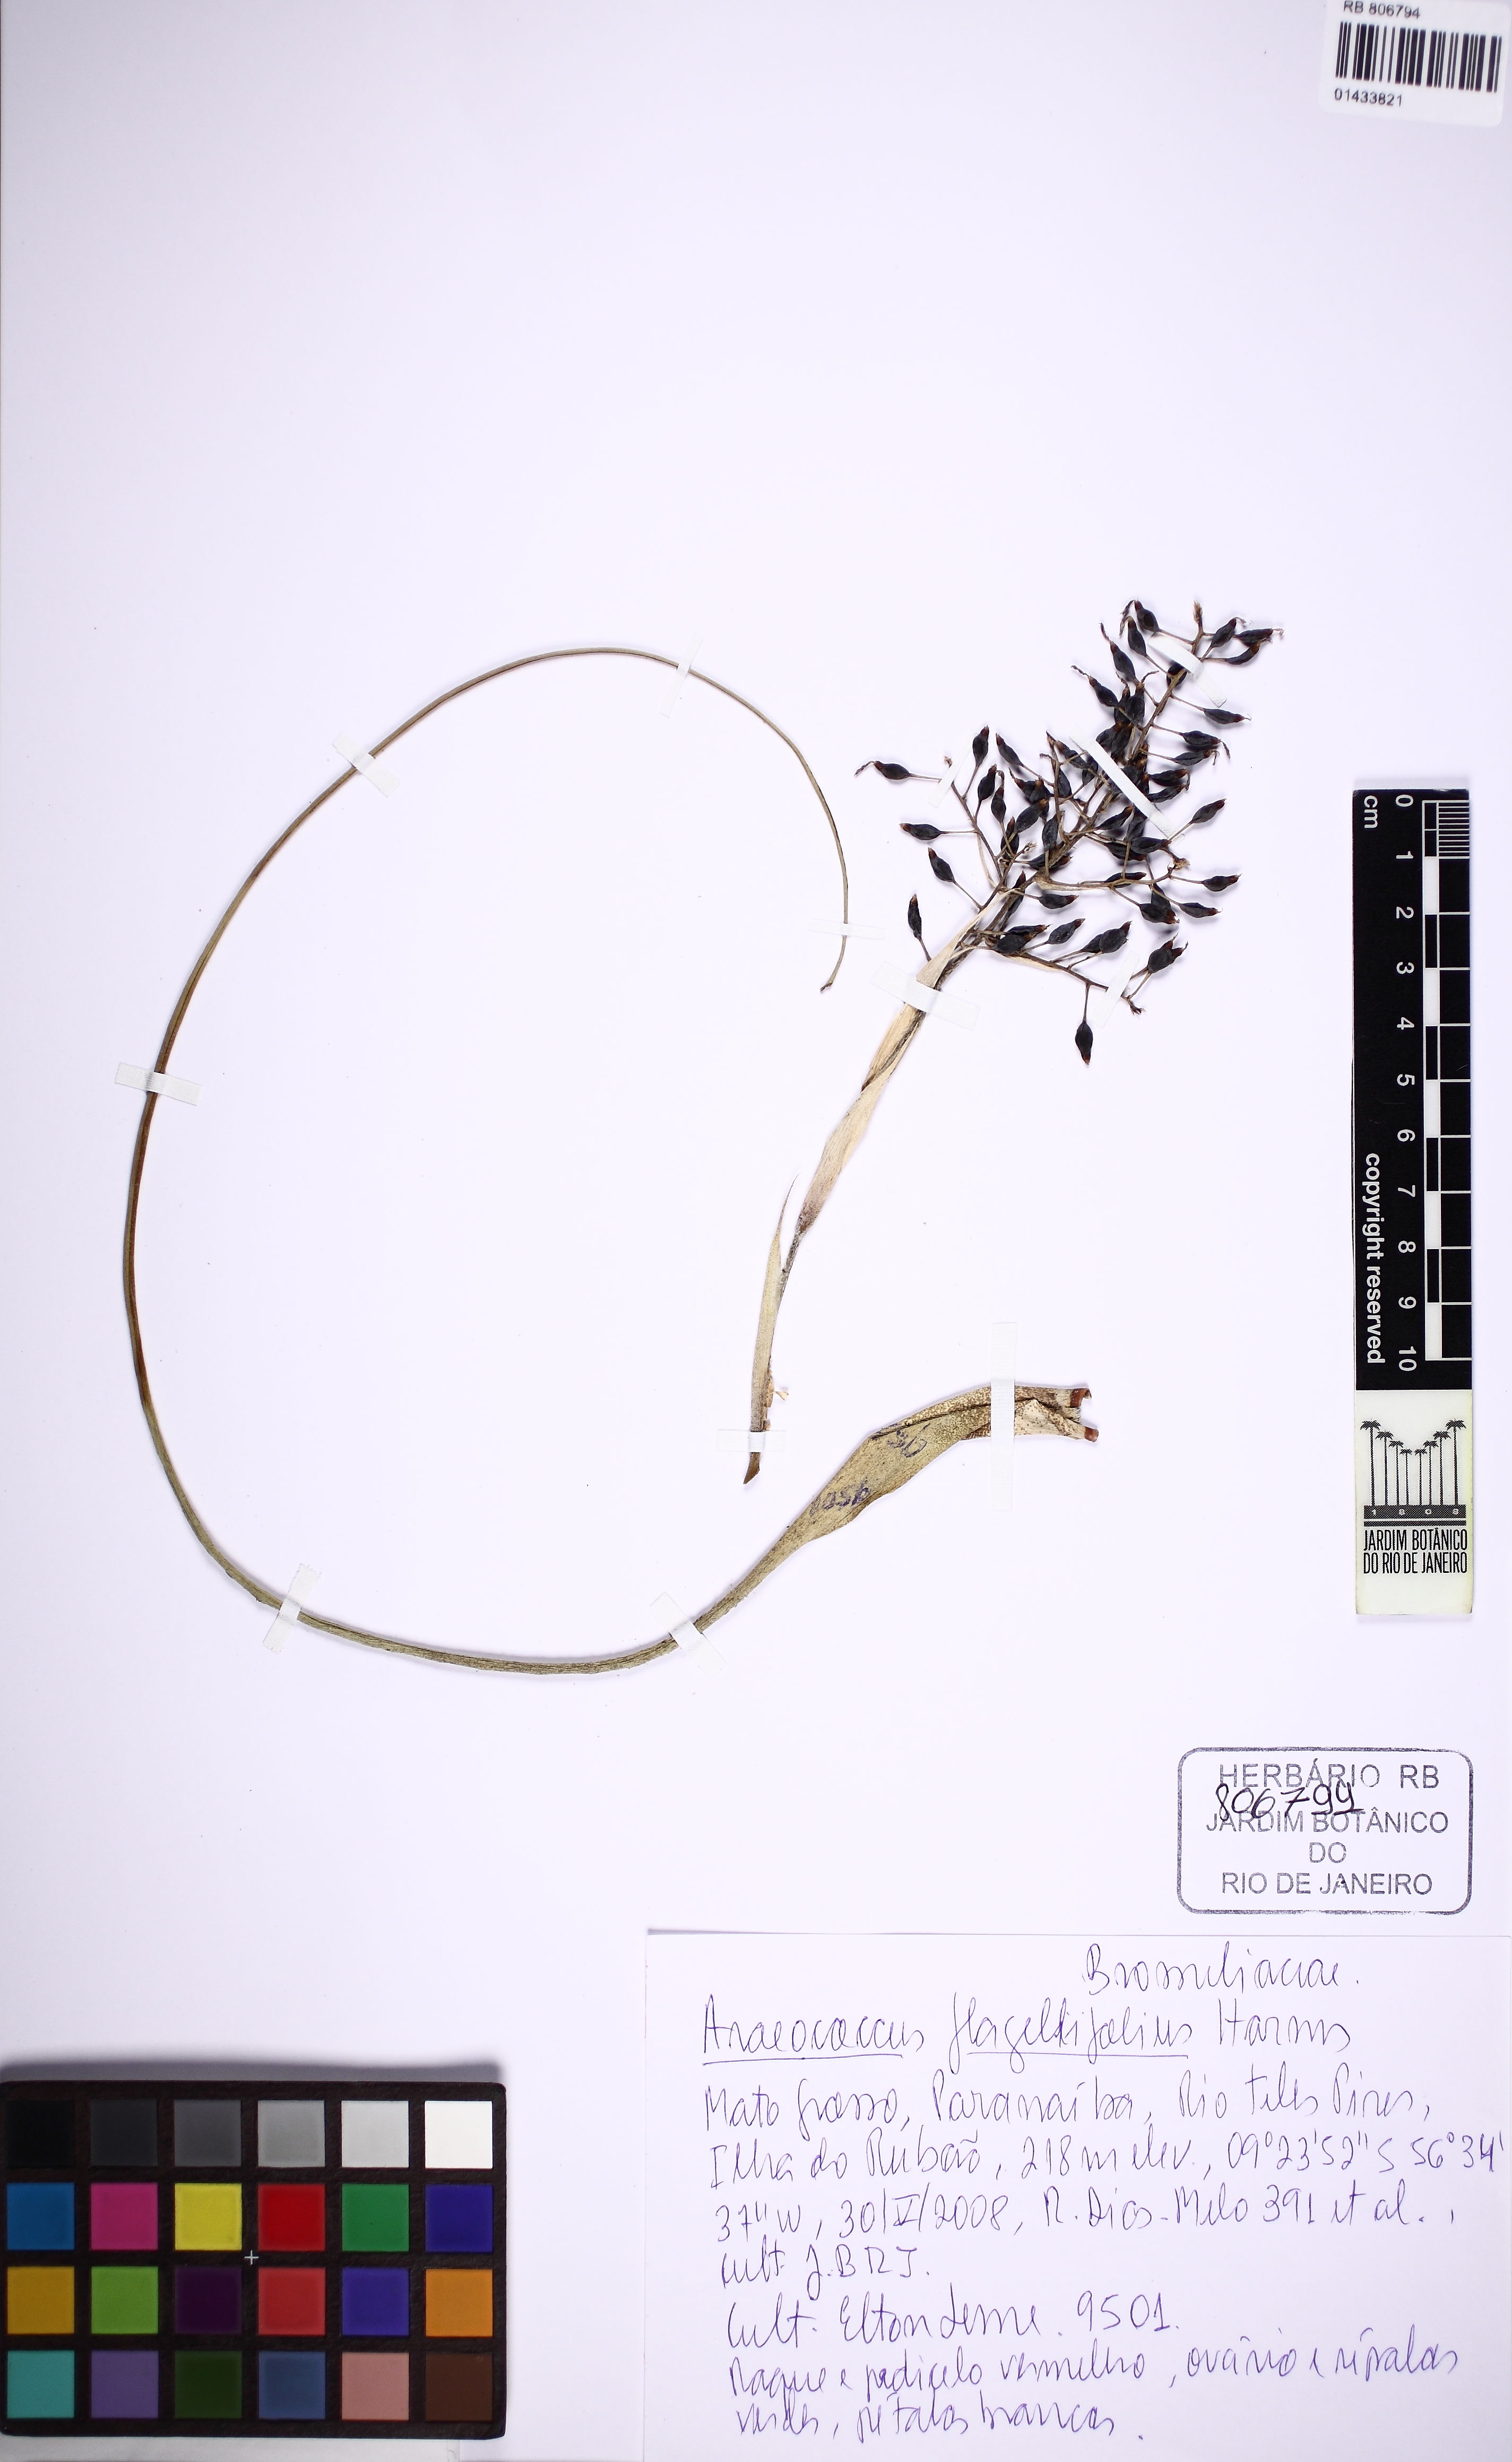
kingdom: Plantae
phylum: Tracheophyta
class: Liliopsida
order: Poales
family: Bromeliaceae
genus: Pseudaraeococcus
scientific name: Pseudaraeococcus lageniformis
